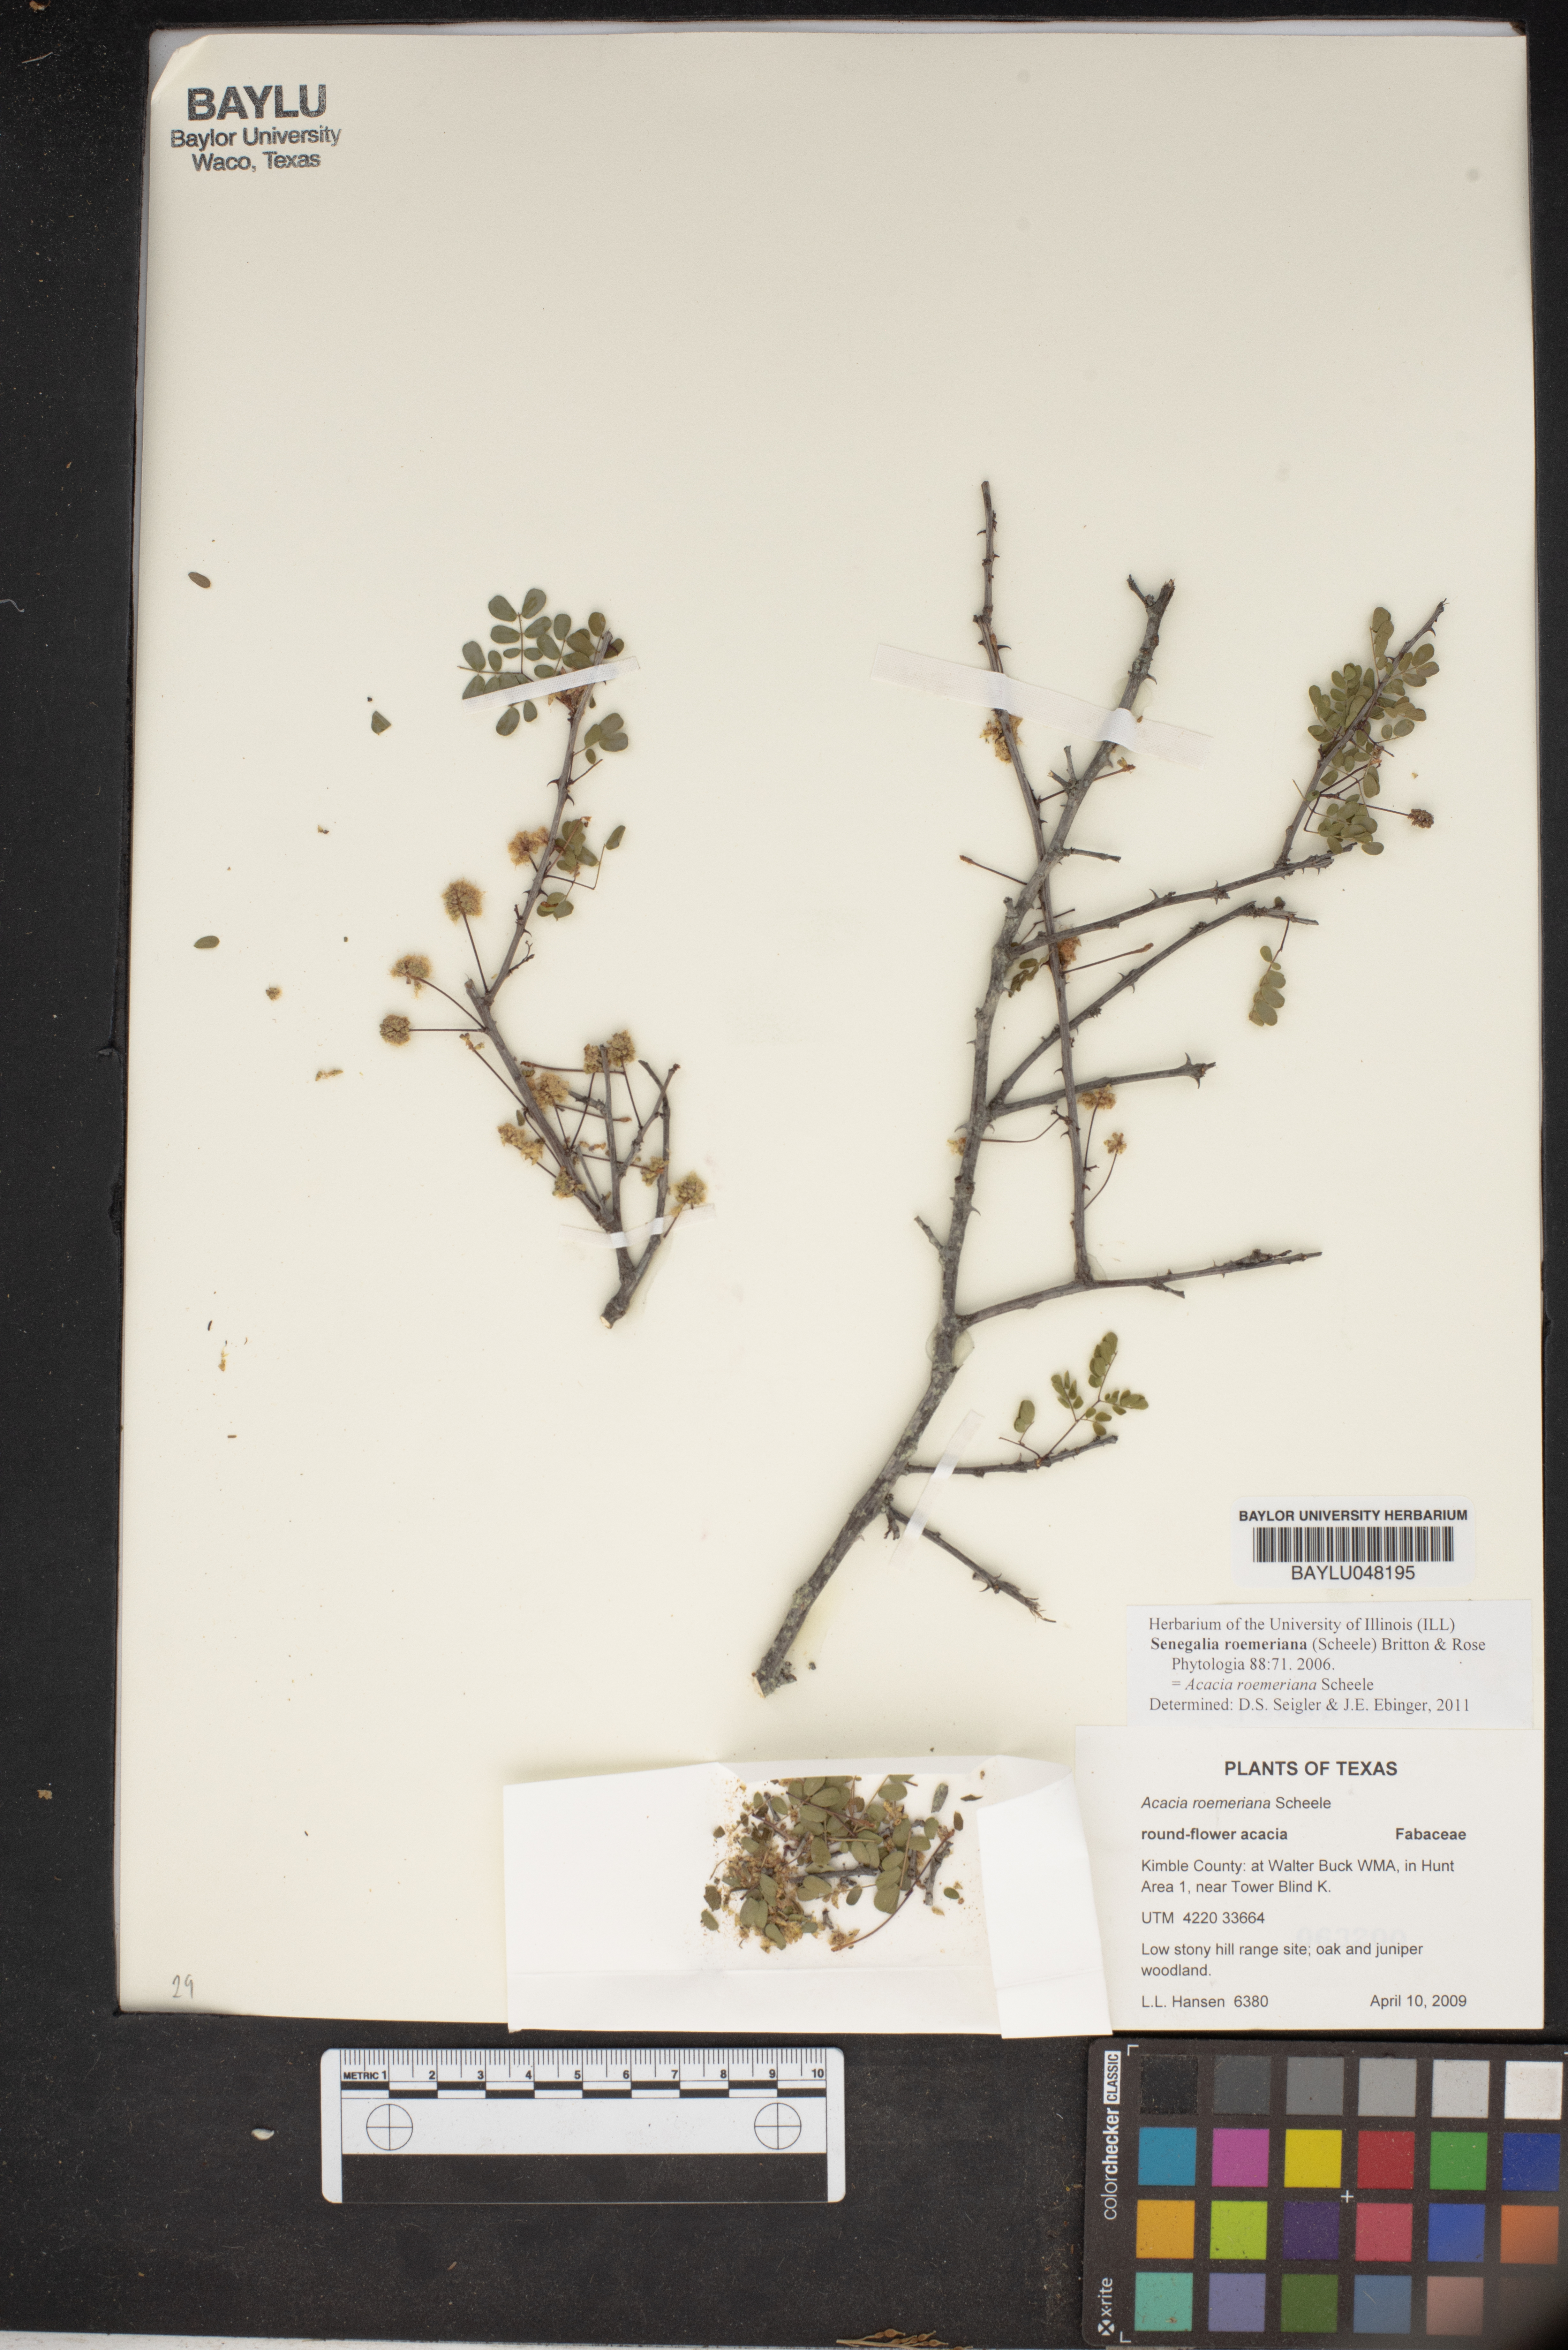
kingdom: Plantae
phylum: Tracheophyta
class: Magnoliopsida
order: Fabales
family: Fabaceae
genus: Senegalia
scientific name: Senegalia roemeriana
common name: Roemer's acacia
